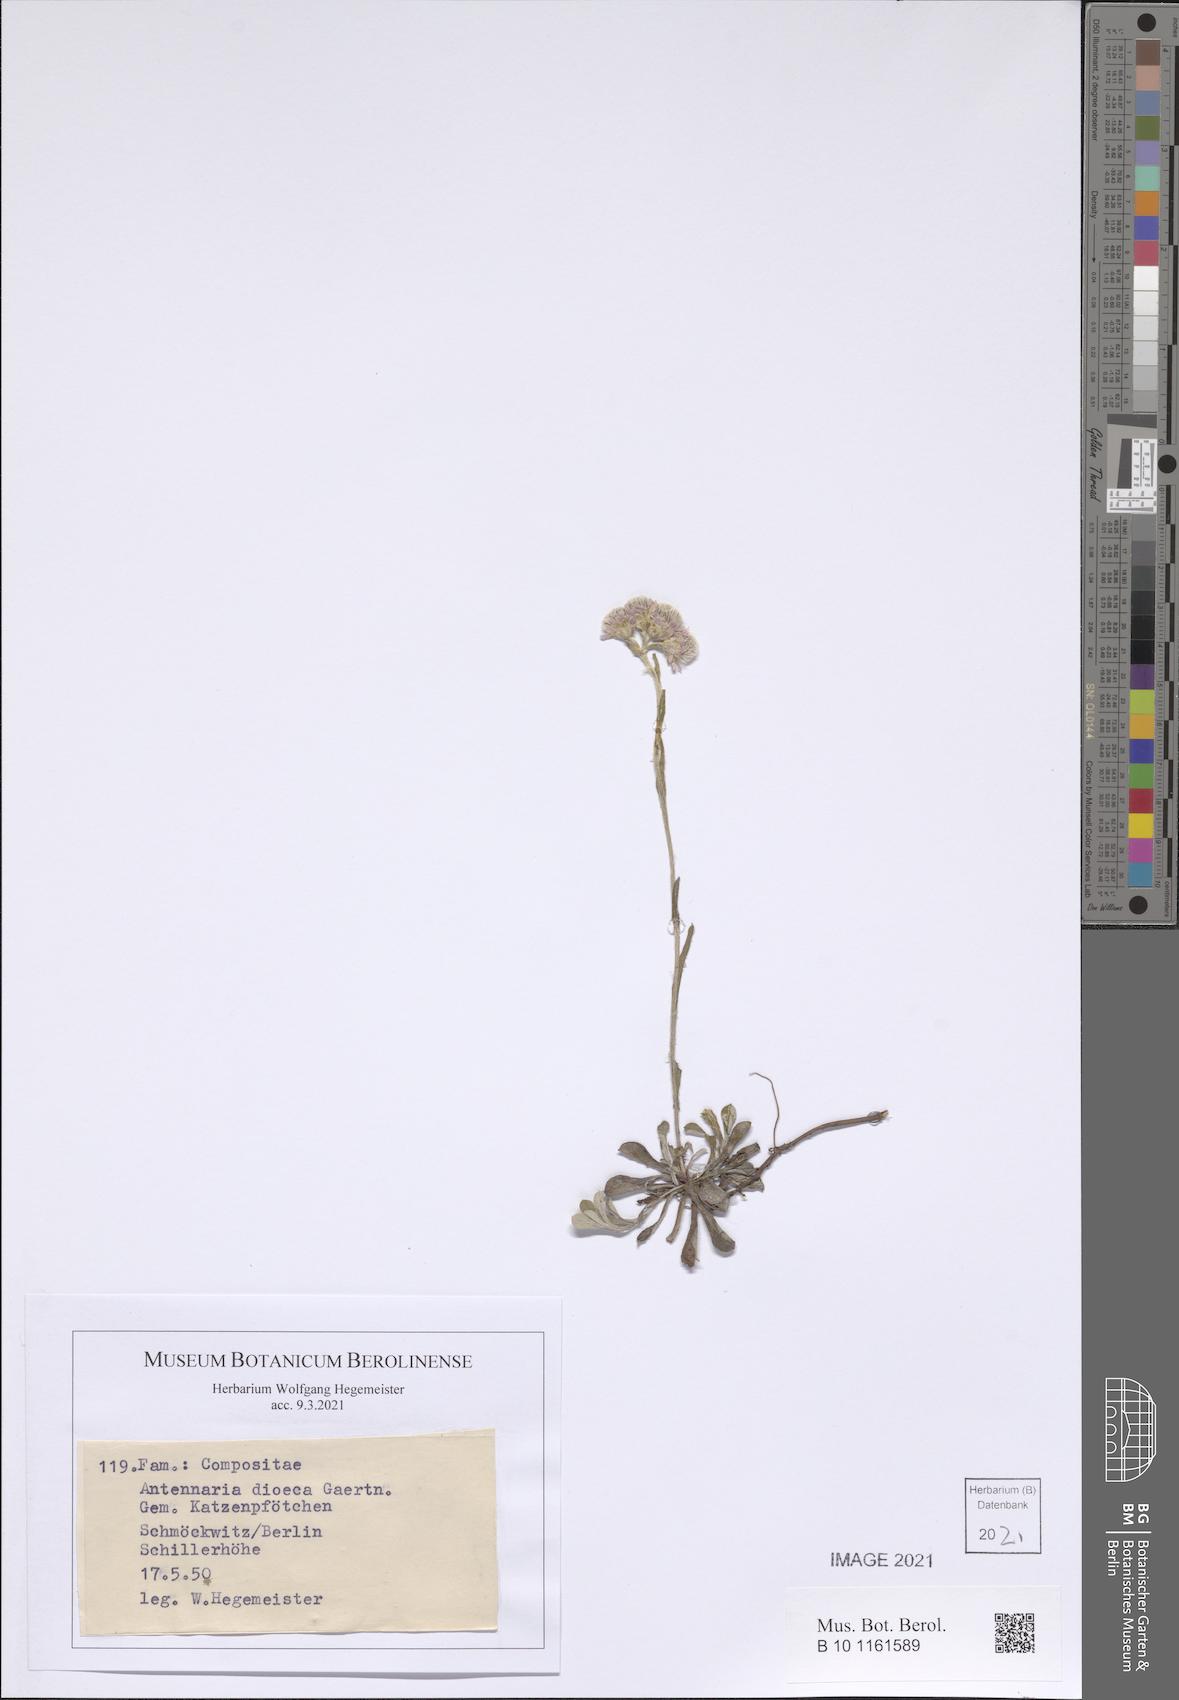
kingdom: Plantae
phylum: Tracheophyta
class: Magnoliopsida
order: Asterales
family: Asteraceae
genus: Antennaria
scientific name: Antennaria dioica
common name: Mountain everlasting
